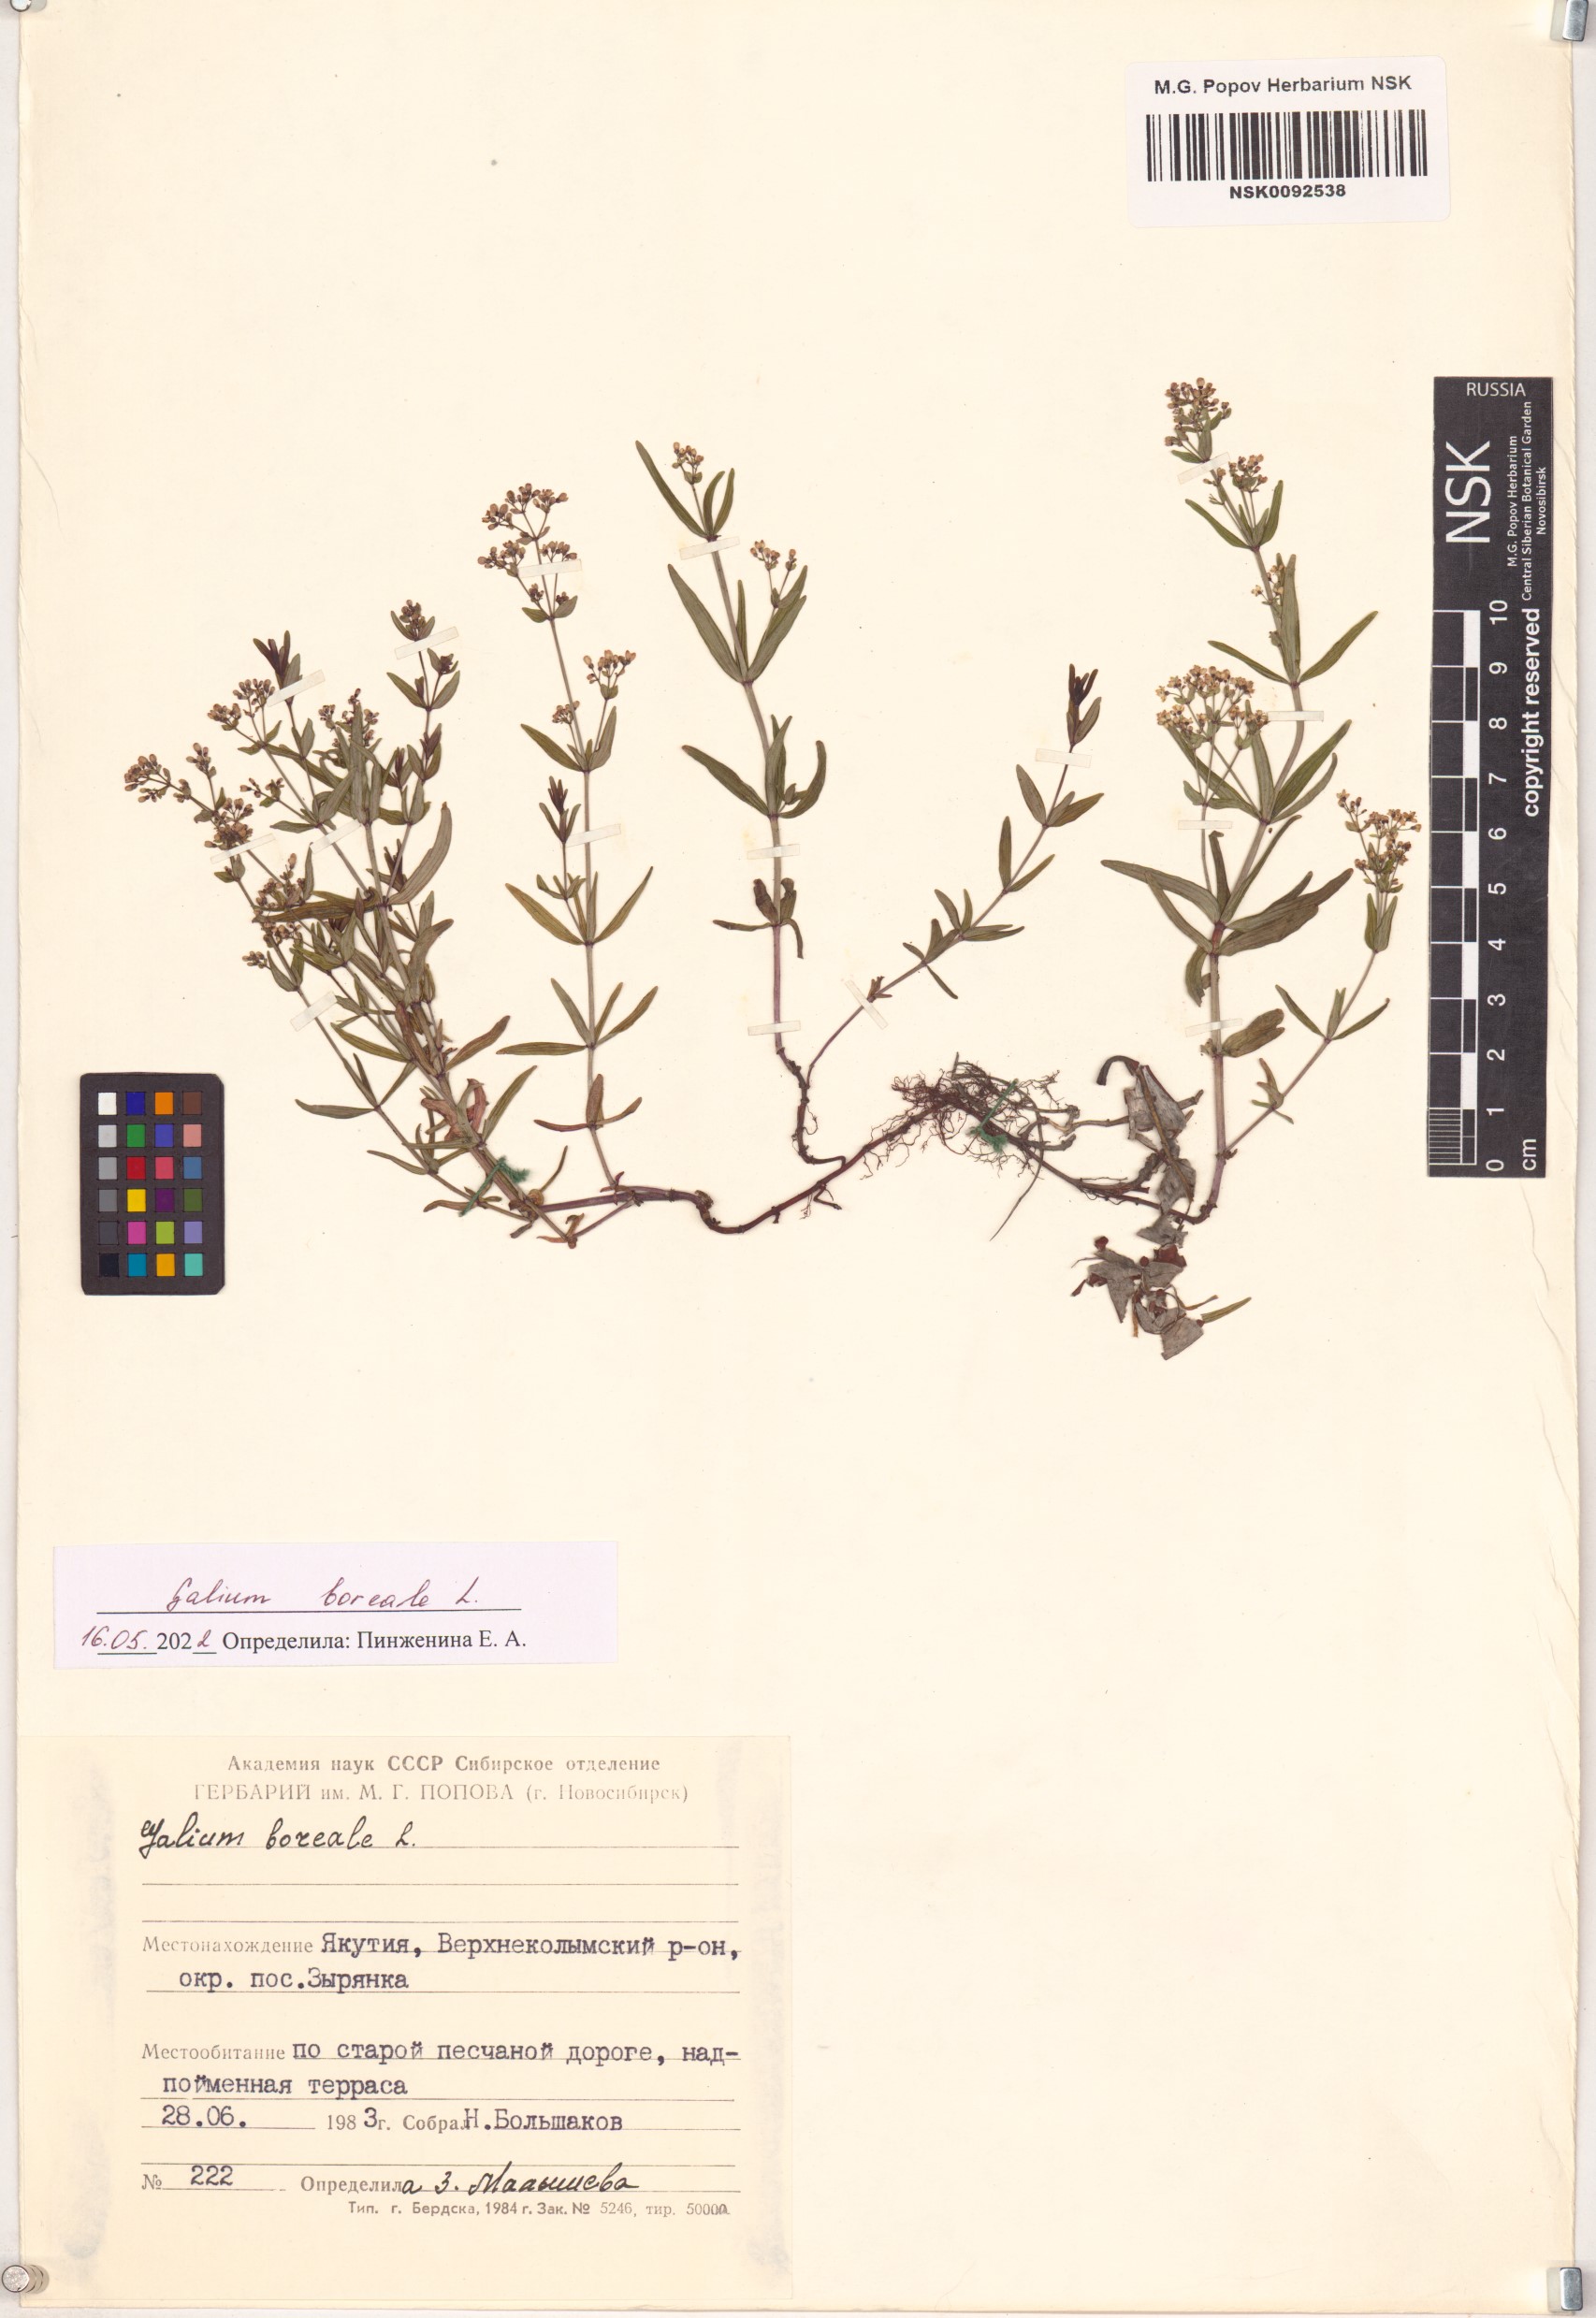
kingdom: Plantae
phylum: Tracheophyta
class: Magnoliopsida
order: Gentianales
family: Rubiaceae
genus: Galium
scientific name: Galium boreale
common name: Northern bedstraw
